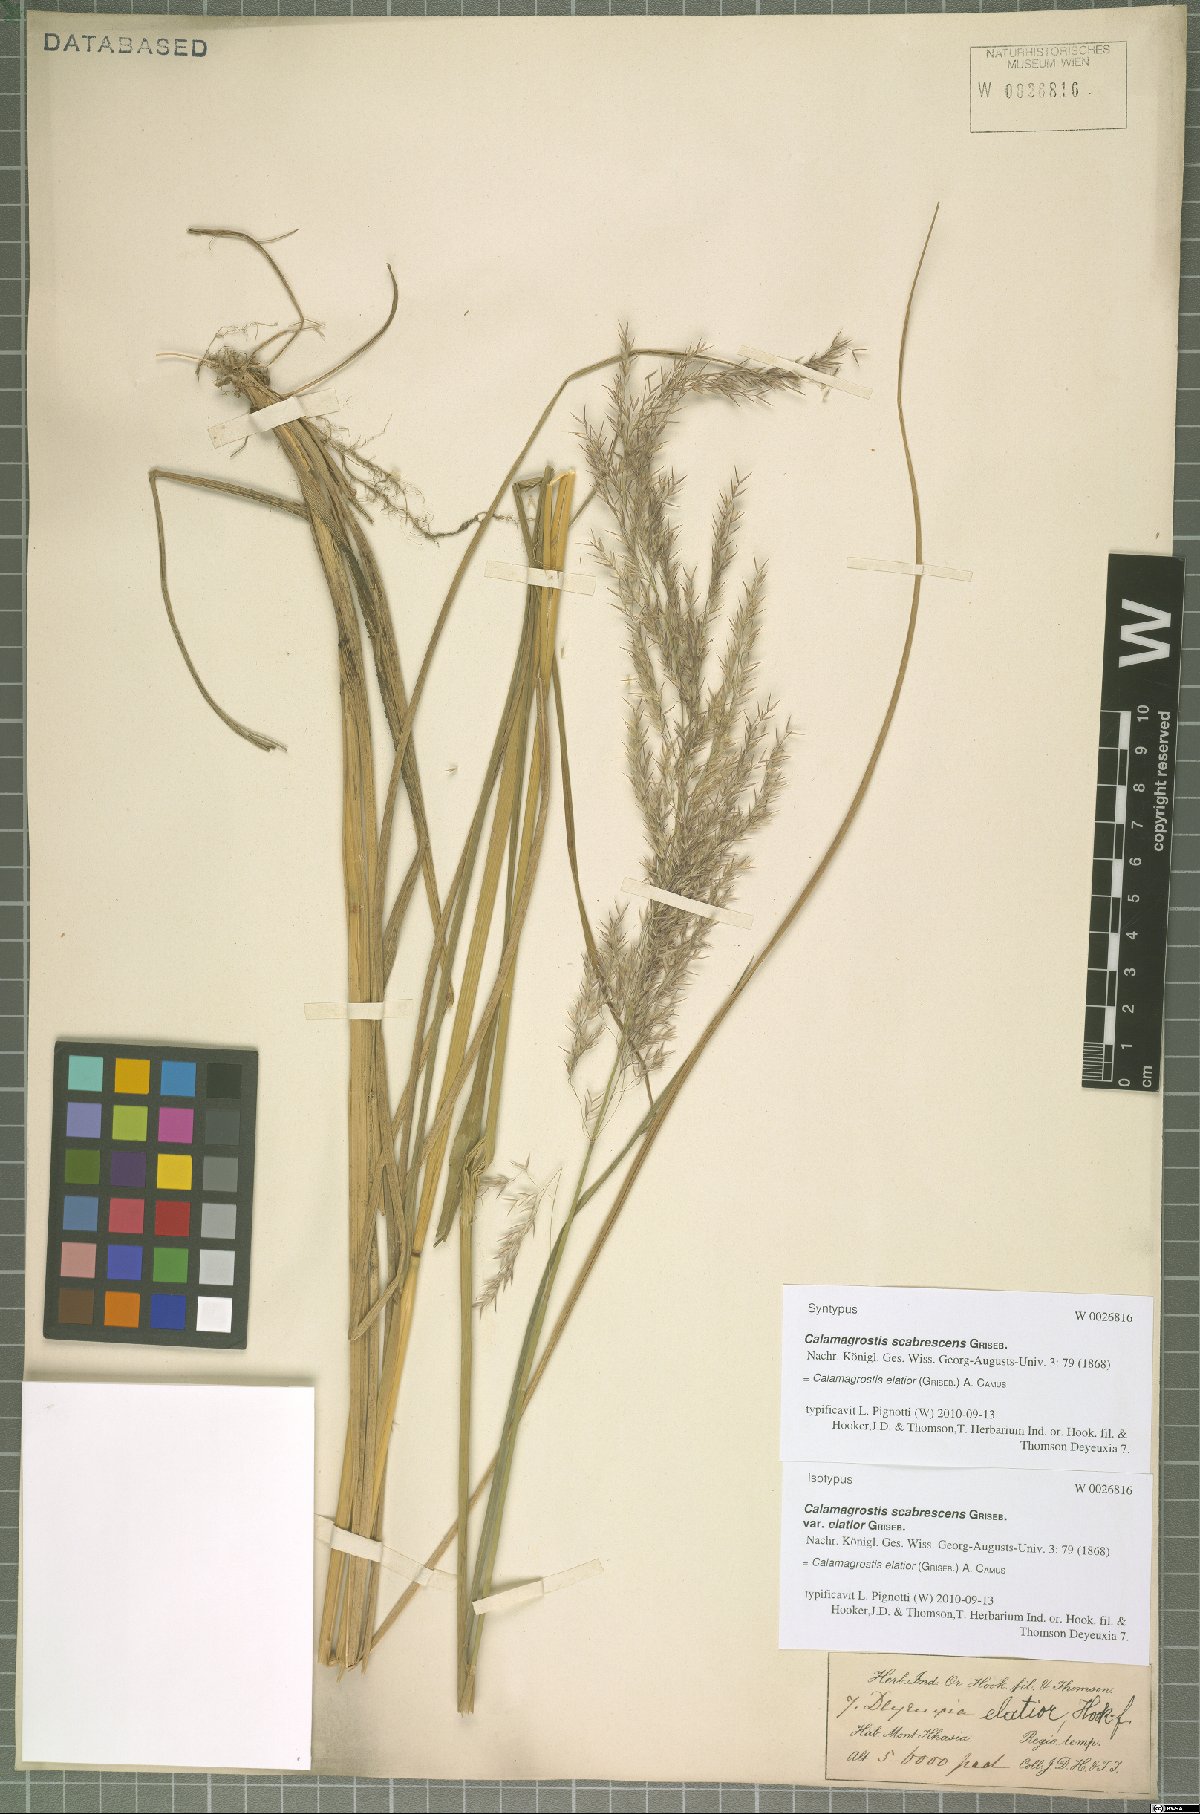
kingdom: Plantae
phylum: Tracheophyta
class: Liliopsida
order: Poales
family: Poaceae
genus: Calamagrostis
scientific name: Calamagrostis elatior
